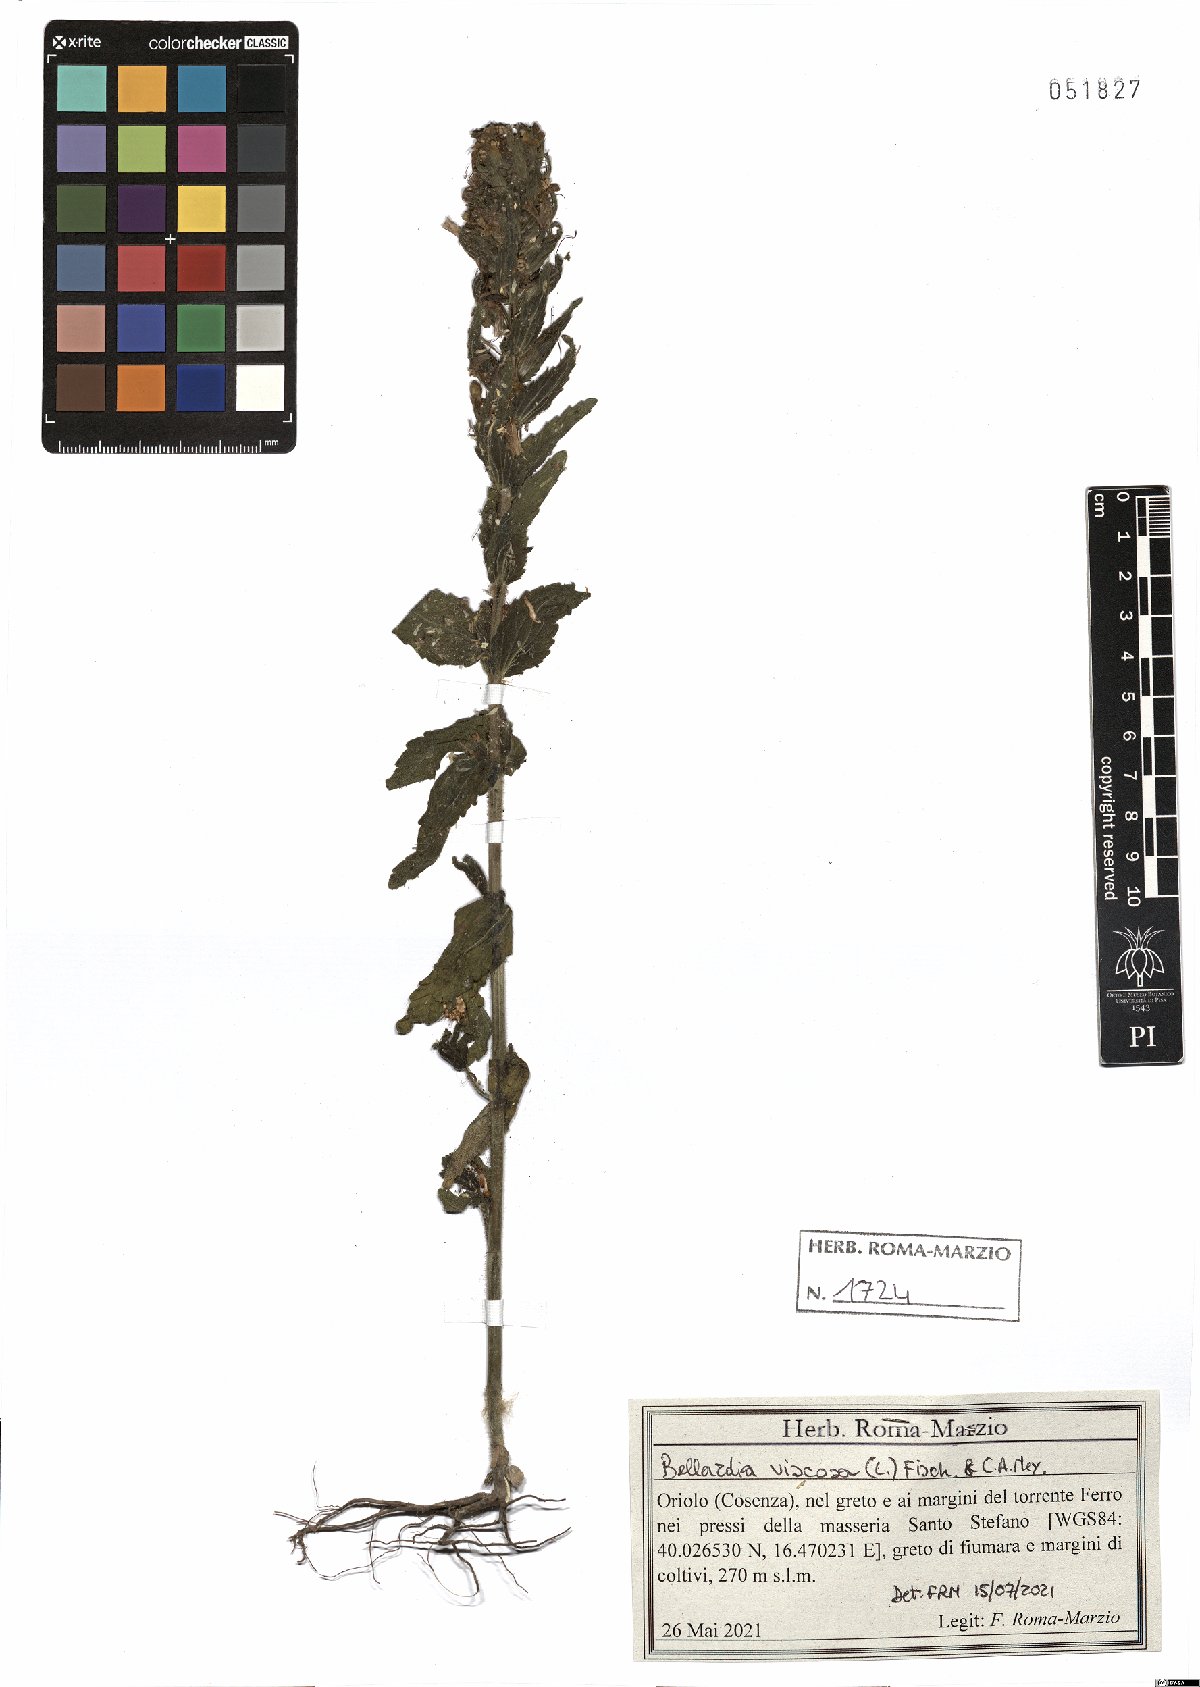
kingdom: Plantae
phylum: Tracheophyta
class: Magnoliopsida
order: Lamiales
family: Orobanchaceae
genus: Bellardia
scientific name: Bellardia viscosa
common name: Sticky parentucellia
